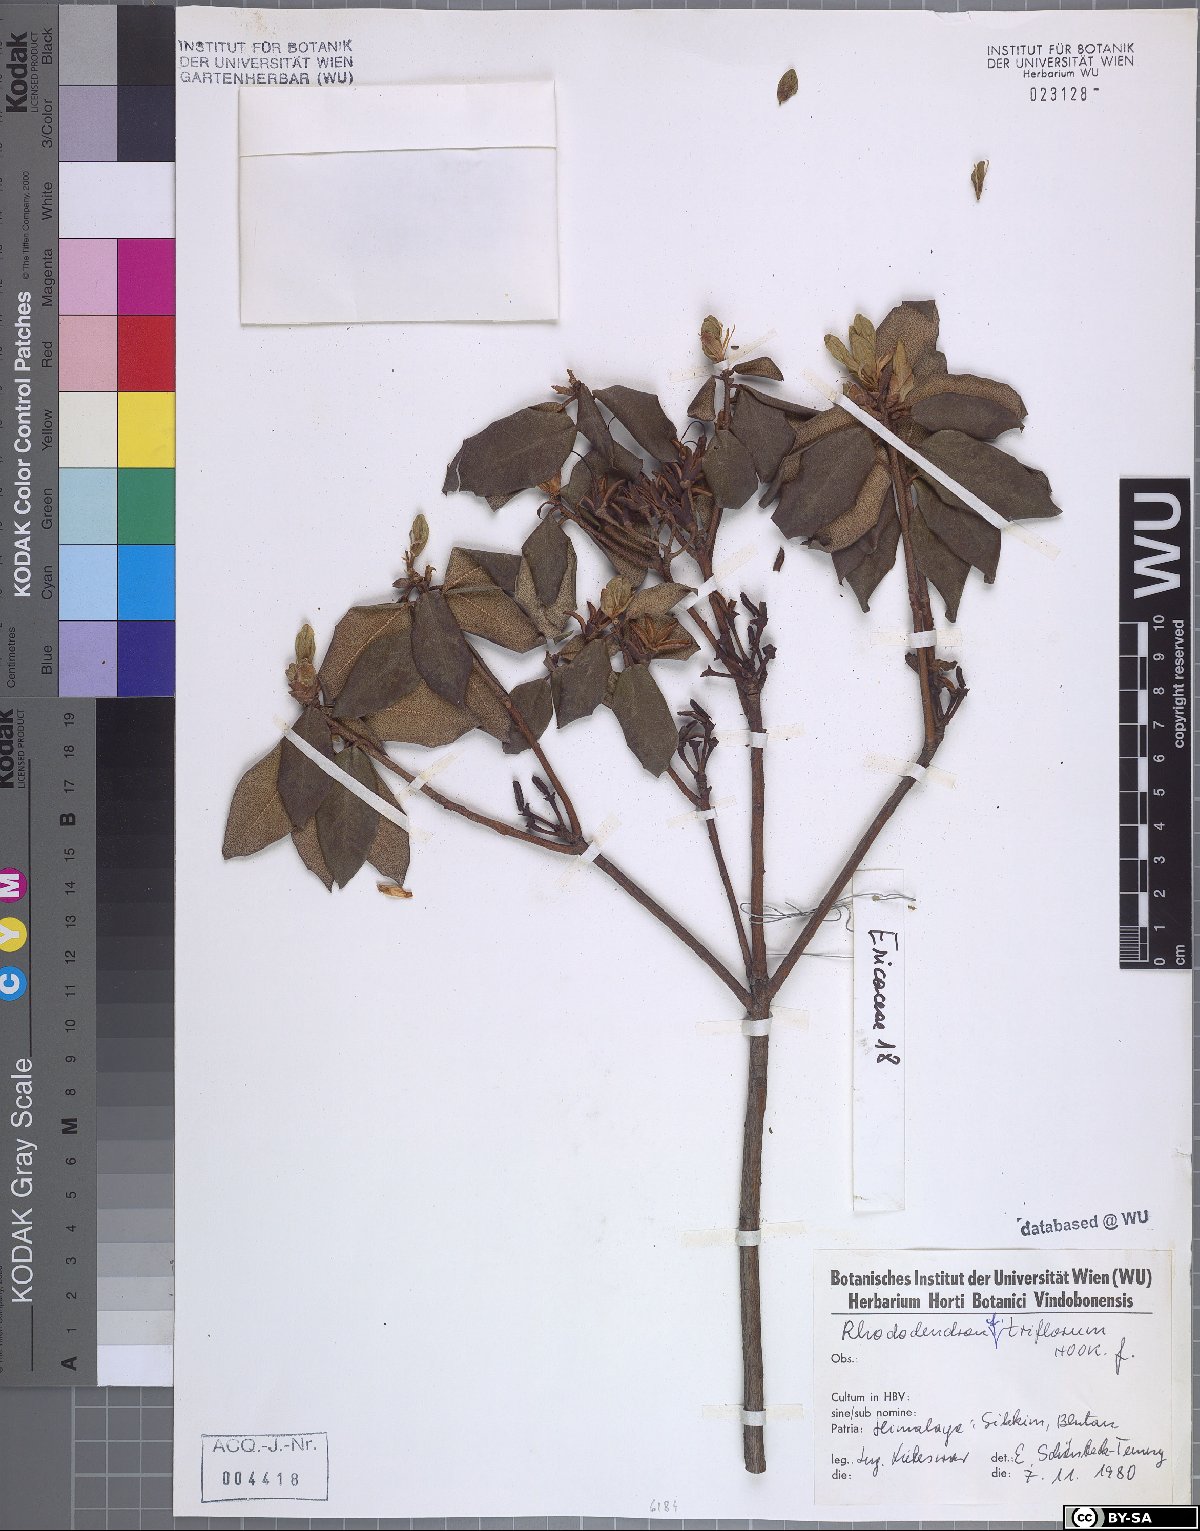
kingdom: Plantae
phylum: Tracheophyta
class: Magnoliopsida
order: Ericales
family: Ericaceae
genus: Rhododendron
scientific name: Rhododendron triflorum
